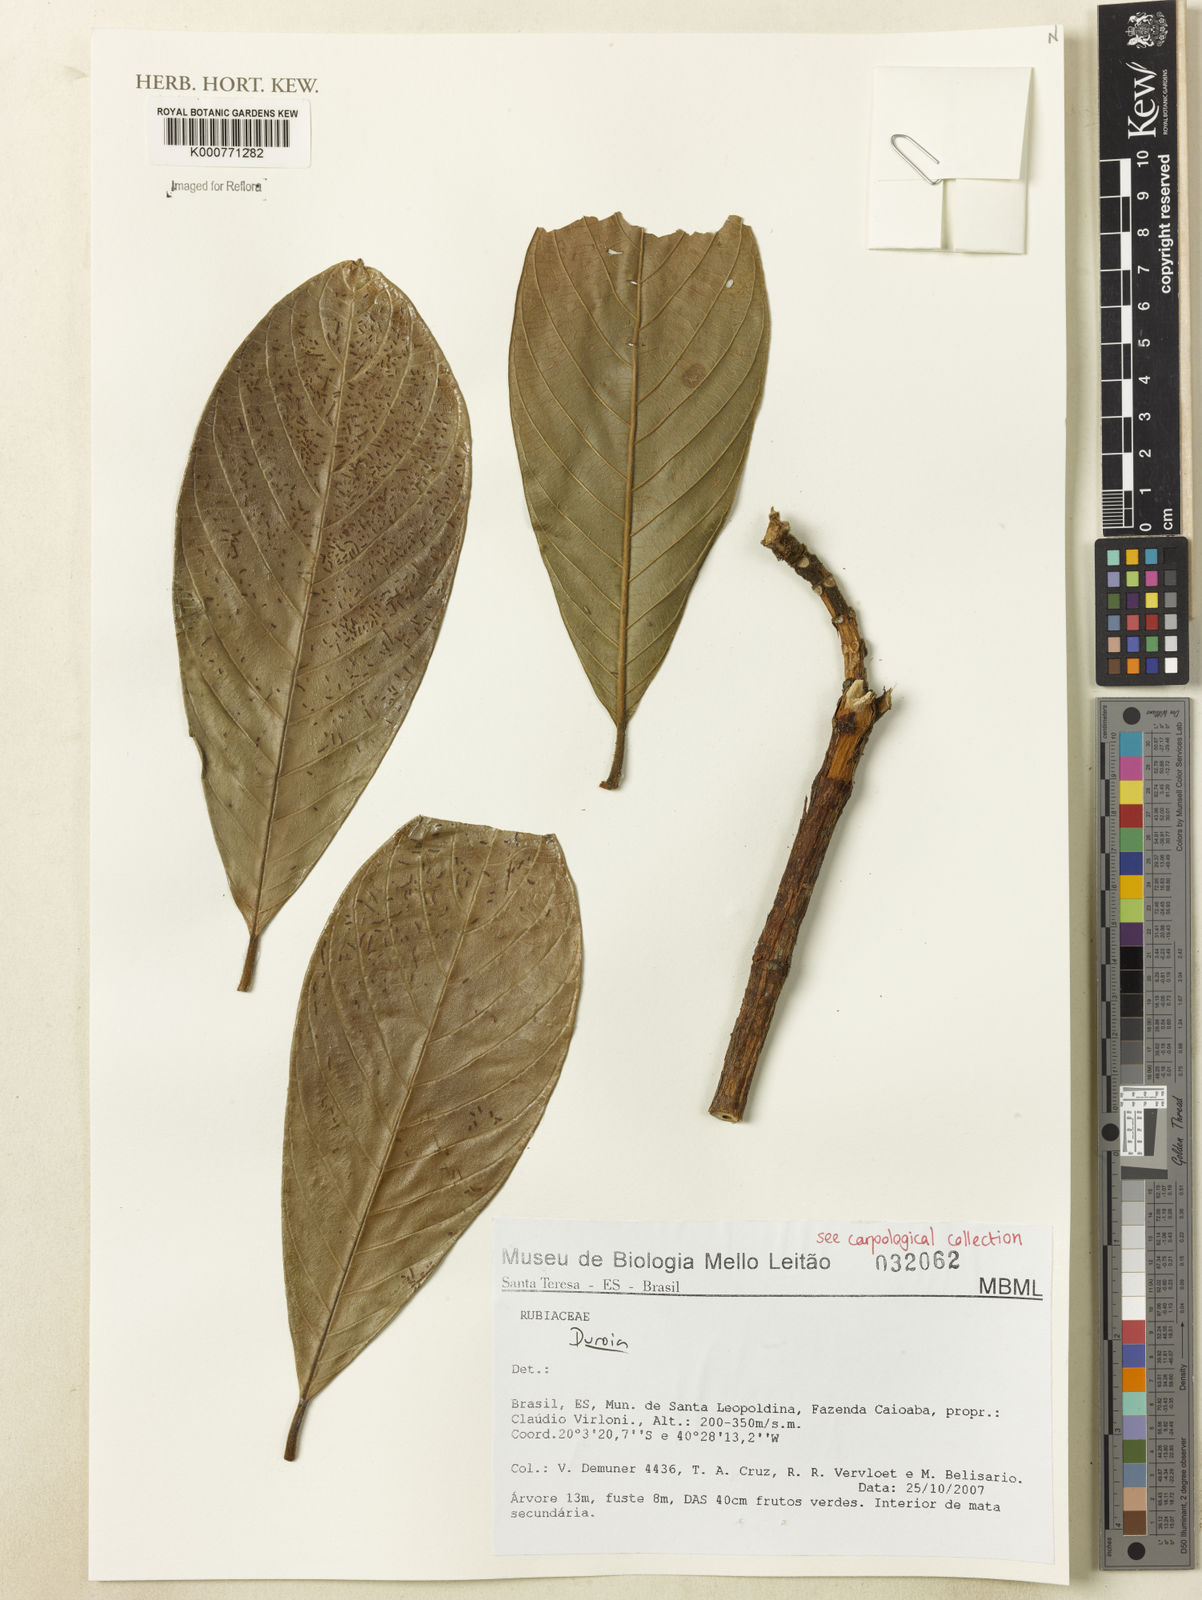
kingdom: Plantae
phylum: Tracheophyta
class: Magnoliopsida
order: Gentianales
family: Rubiaceae
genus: Duroia
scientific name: Duroia
